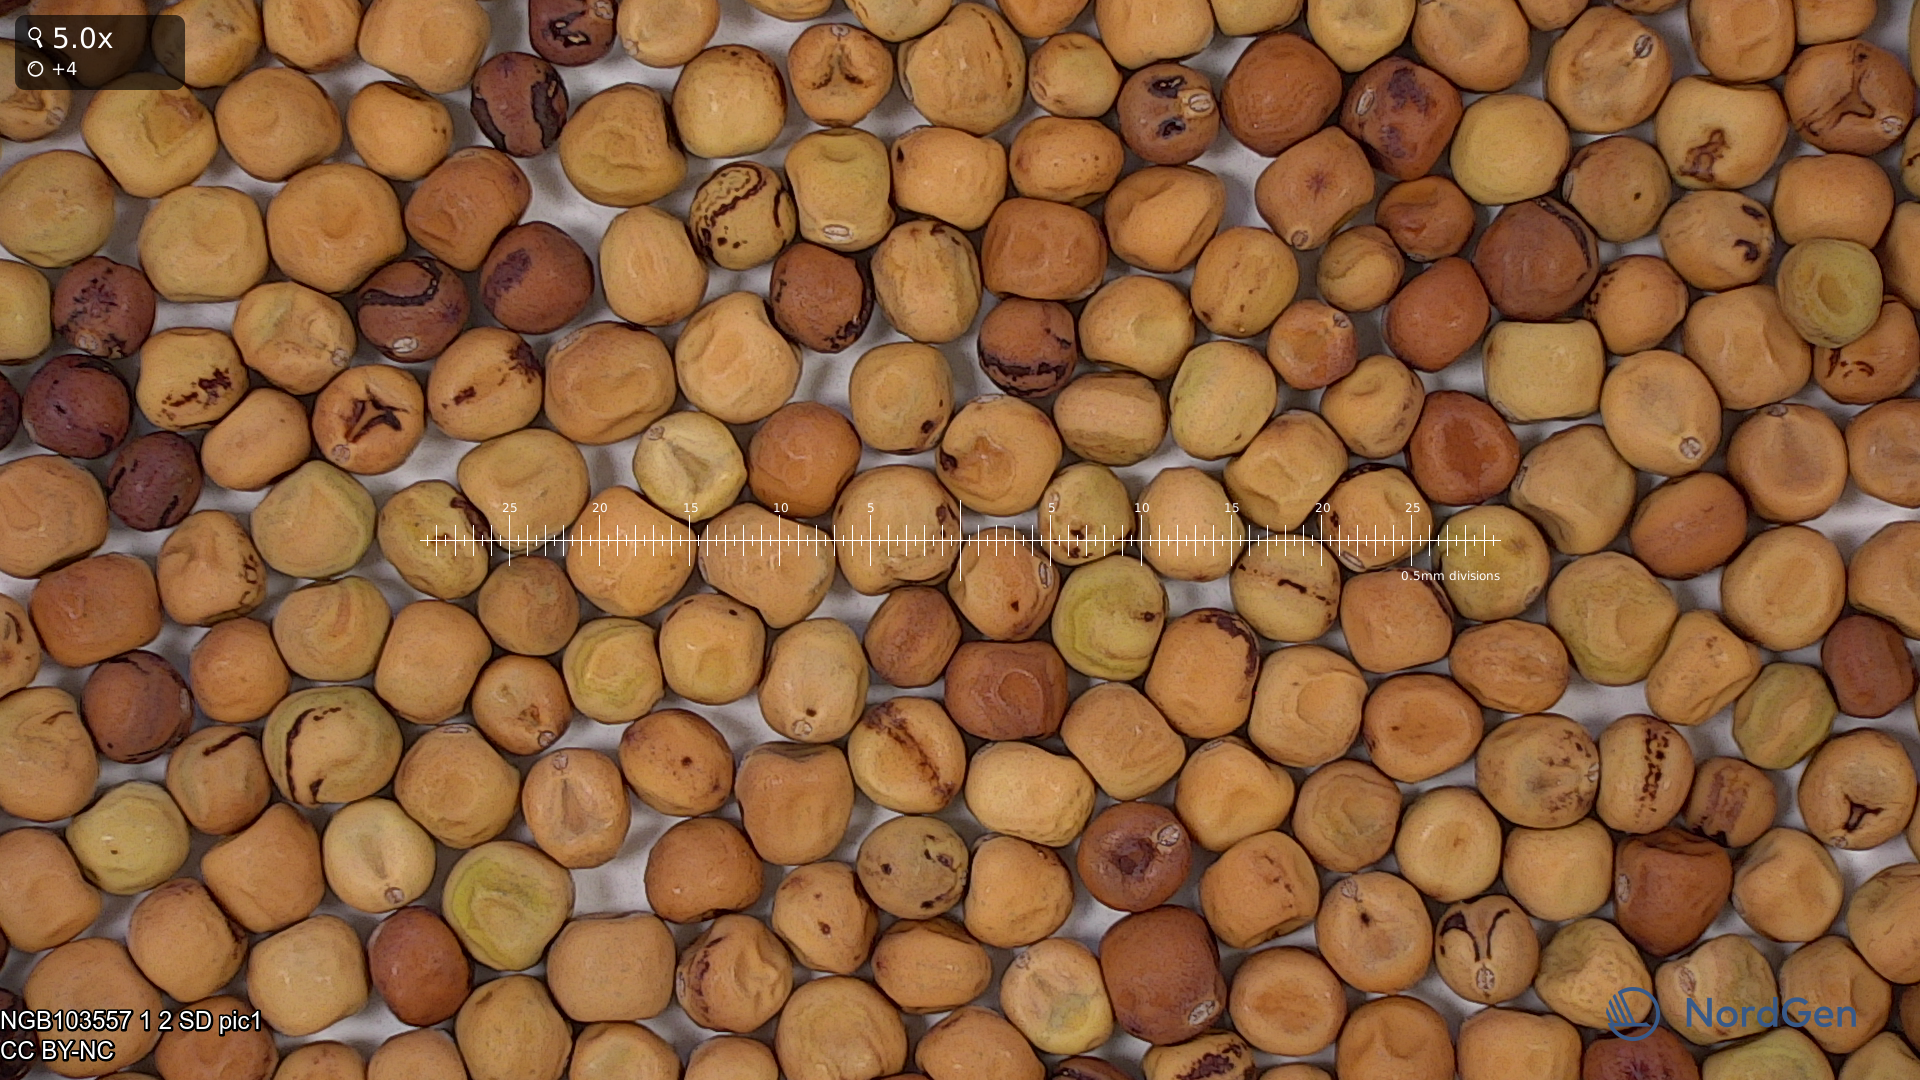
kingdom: Plantae
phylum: Tracheophyta
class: Magnoliopsida
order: Fabales
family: Fabaceae
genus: Lathyrus
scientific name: Lathyrus oleraceus
